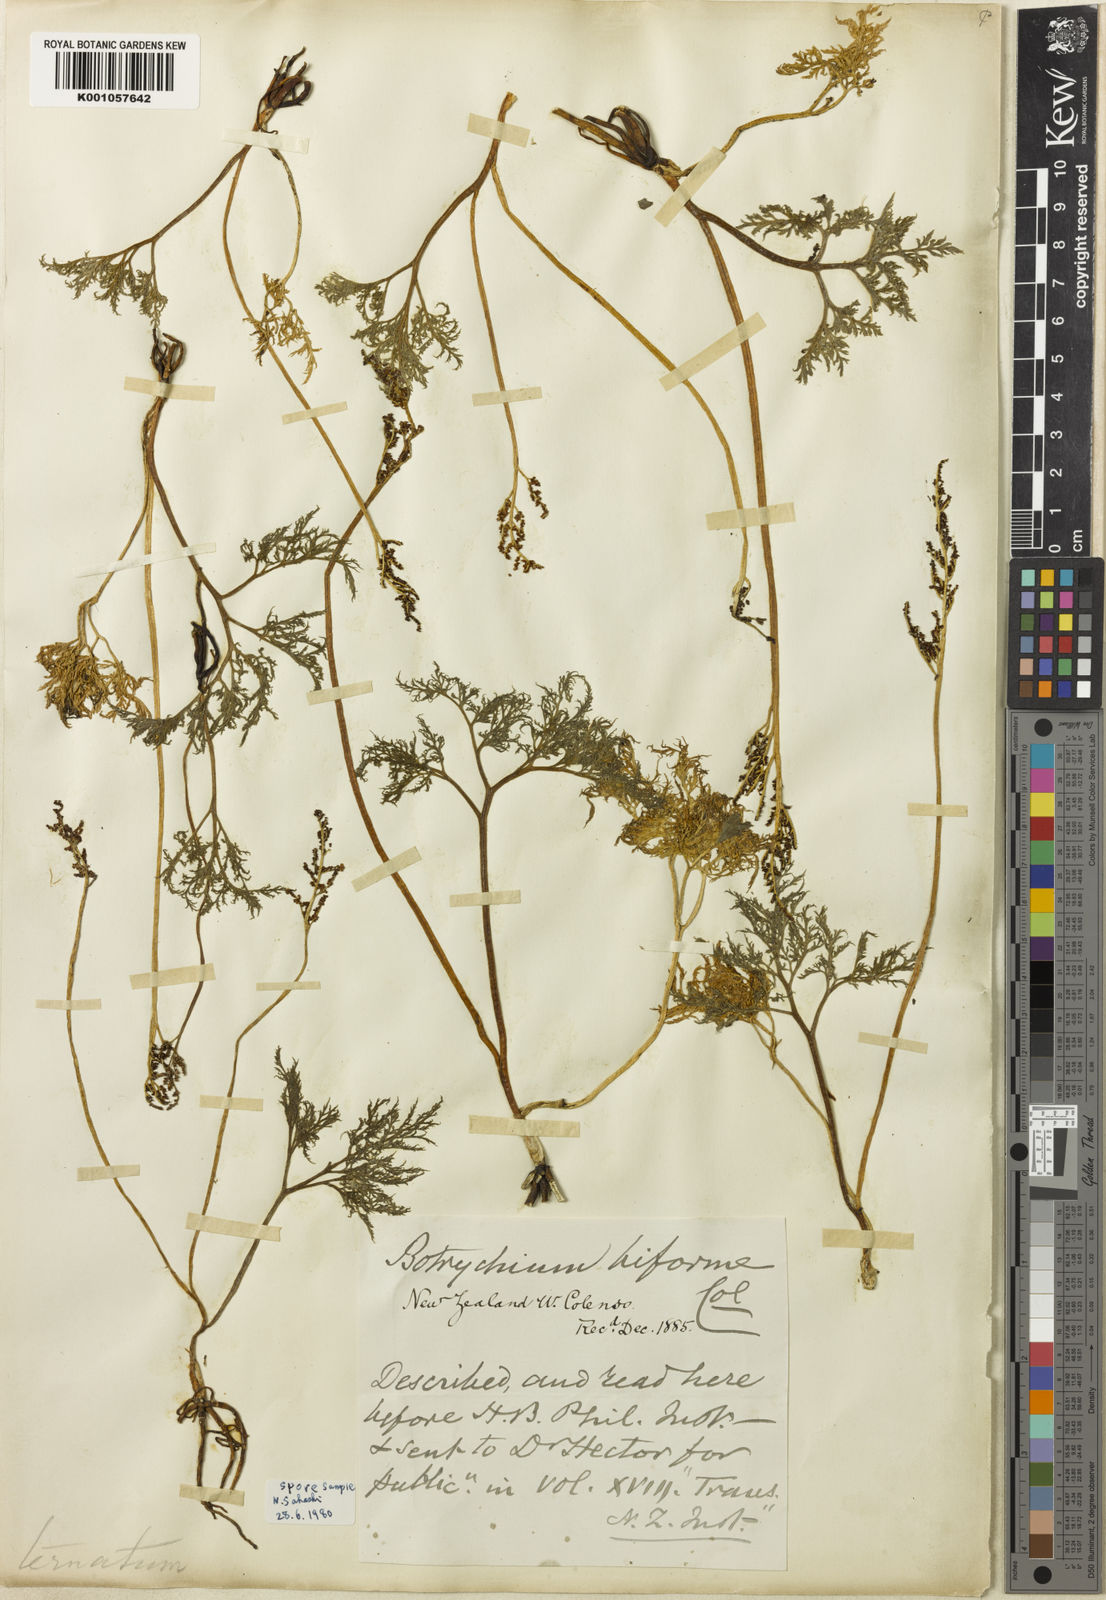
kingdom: Plantae
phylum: Tracheophyta
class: Polypodiopsida
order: Ophioglossales
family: Ophioglossaceae
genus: Sceptridium
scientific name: Sceptridium biforme
